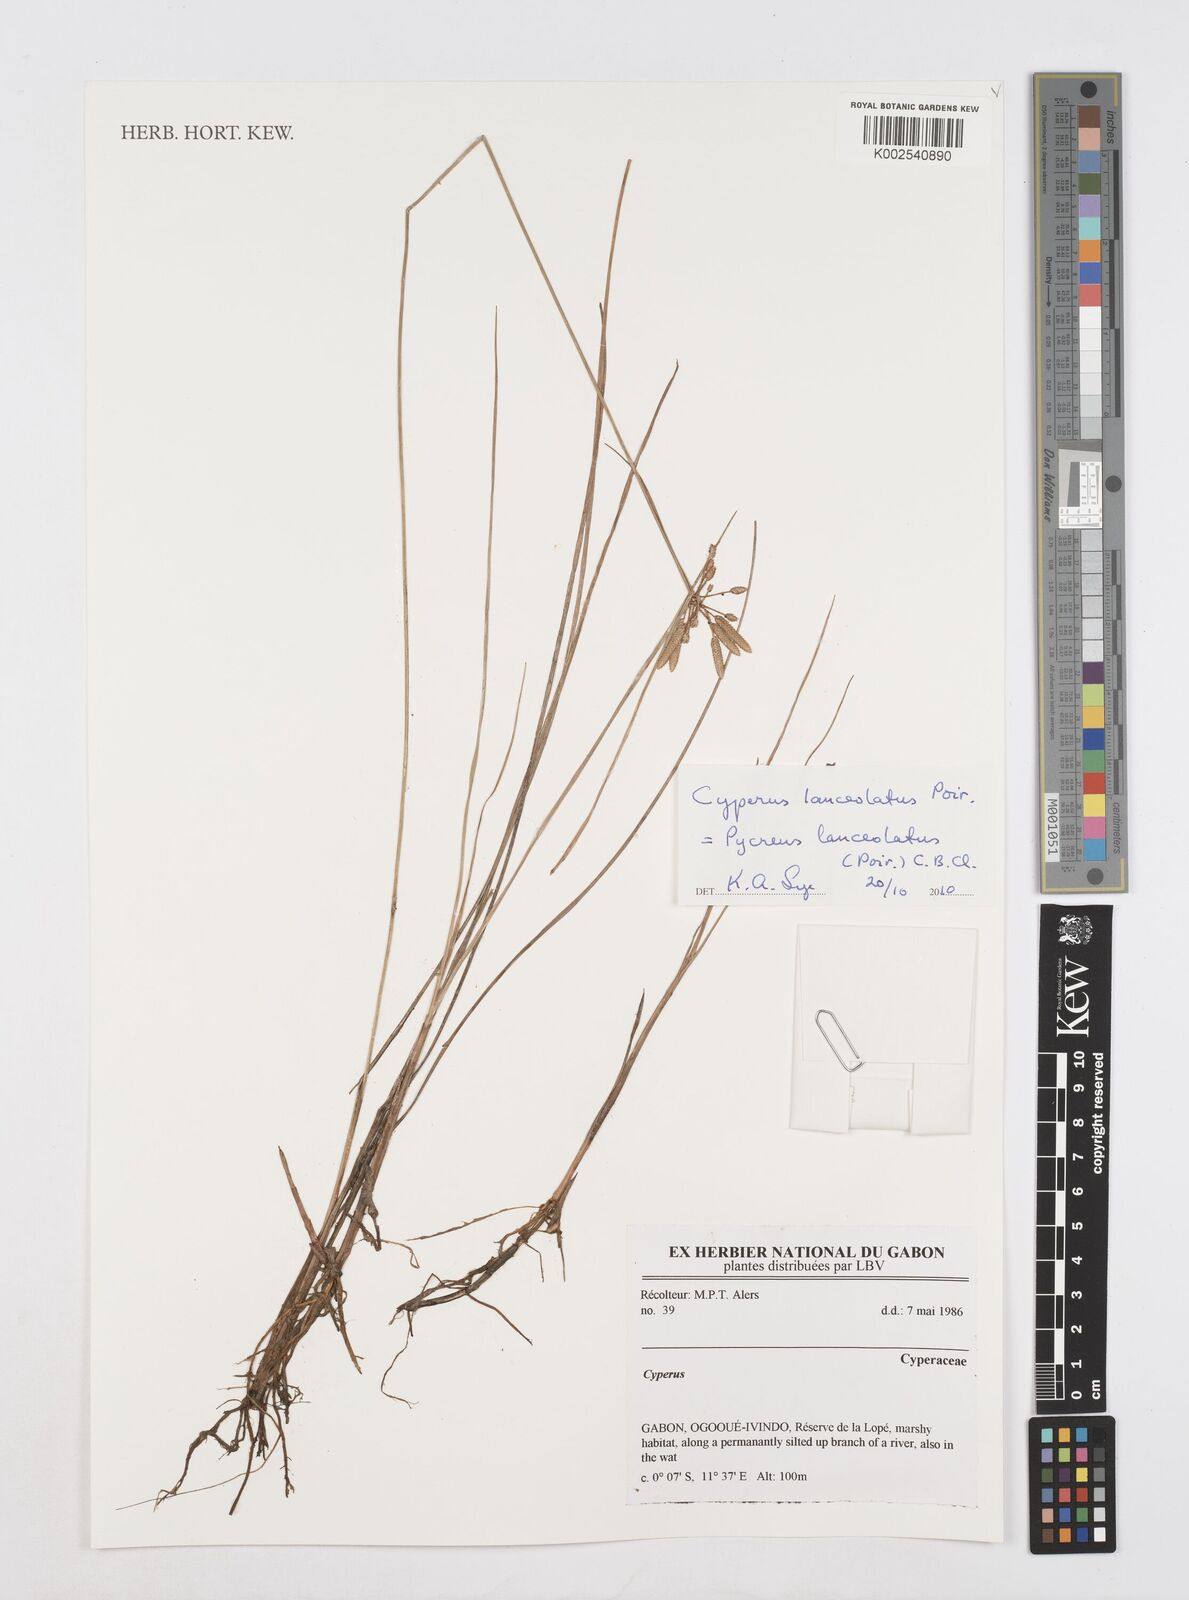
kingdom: Plantae
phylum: Tracheophyta
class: Liliopsida
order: Poales
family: Cyperaceae
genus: Cyperus
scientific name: Cyperus flavescens
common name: Yellow galingale
